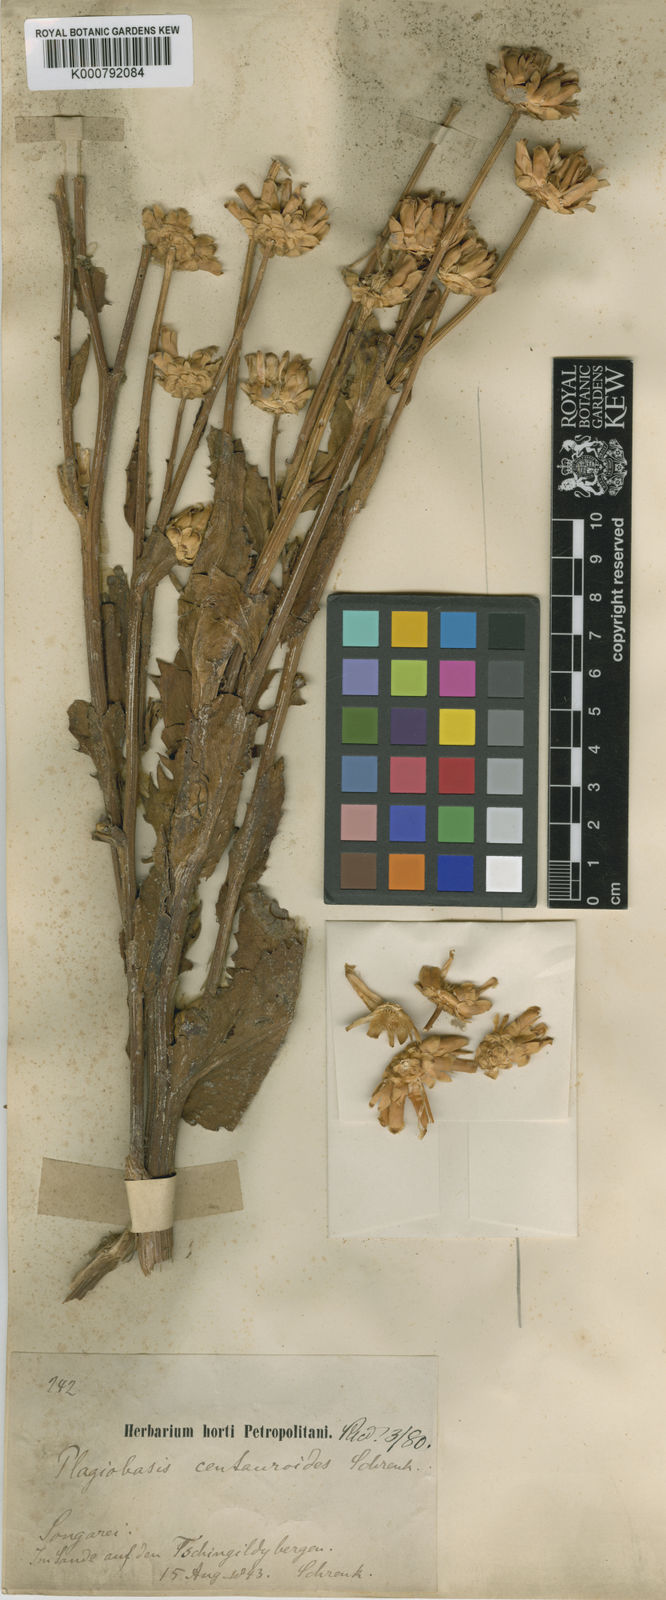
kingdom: Plantae
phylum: Tracheophyta
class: Magnoliopsida
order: Asterales
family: Asteraceae
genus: Plagiobasis
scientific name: Plagiobasis centauroides
